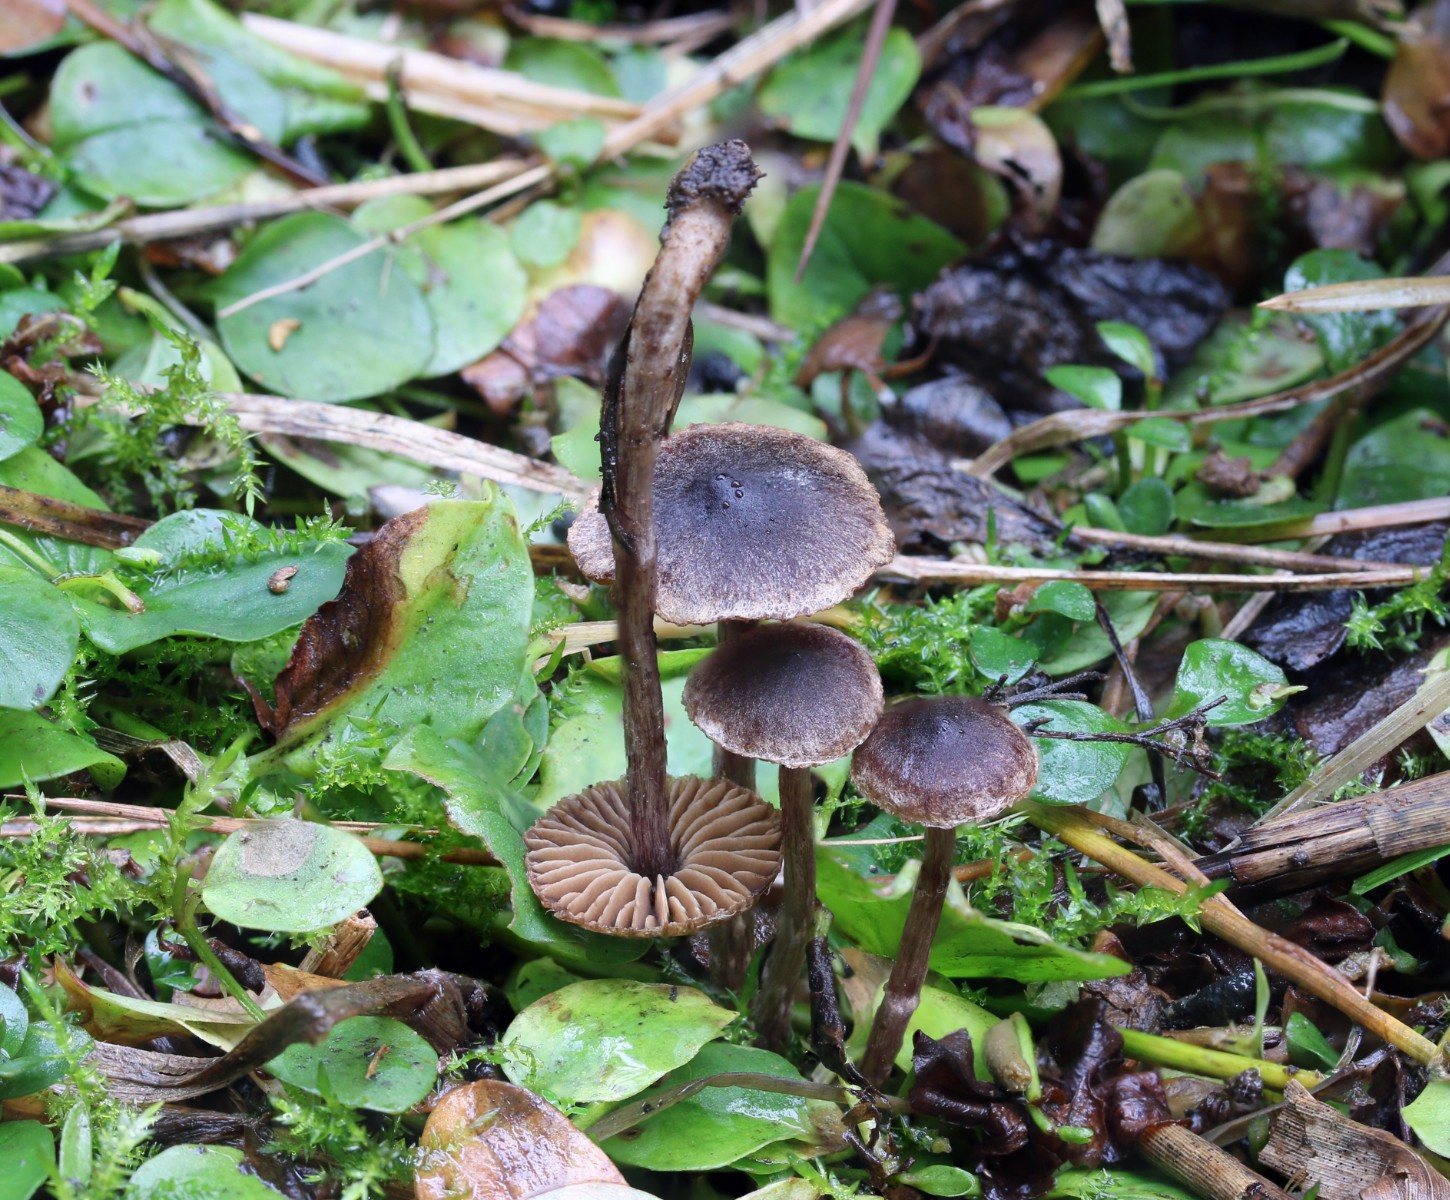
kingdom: Fungi
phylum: Basidiomycota
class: Agaricomycetes
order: Agaricales
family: Cortinariaceae
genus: Cortinarius
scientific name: Cortinarius decipiens
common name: blåsort slørhat
